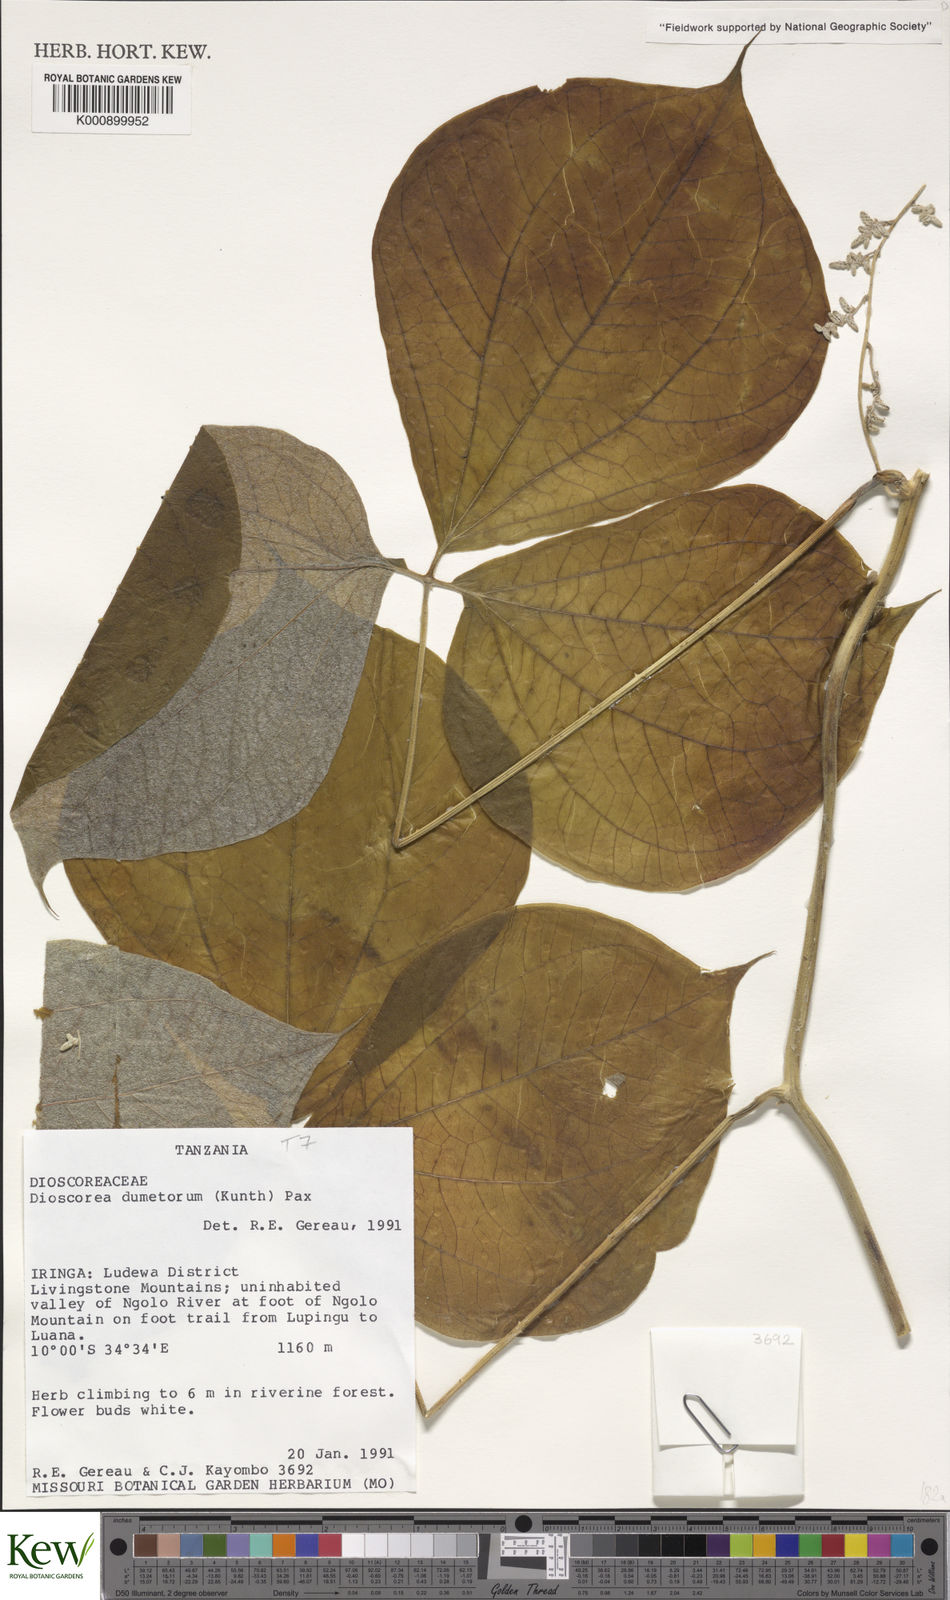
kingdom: Plantae
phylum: Tracheophyta
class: Liliopsida
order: Dioscoreales
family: Dioscoreaceae
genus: Dioscorea
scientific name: Dioscorea dumetorum
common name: African bitter yam
